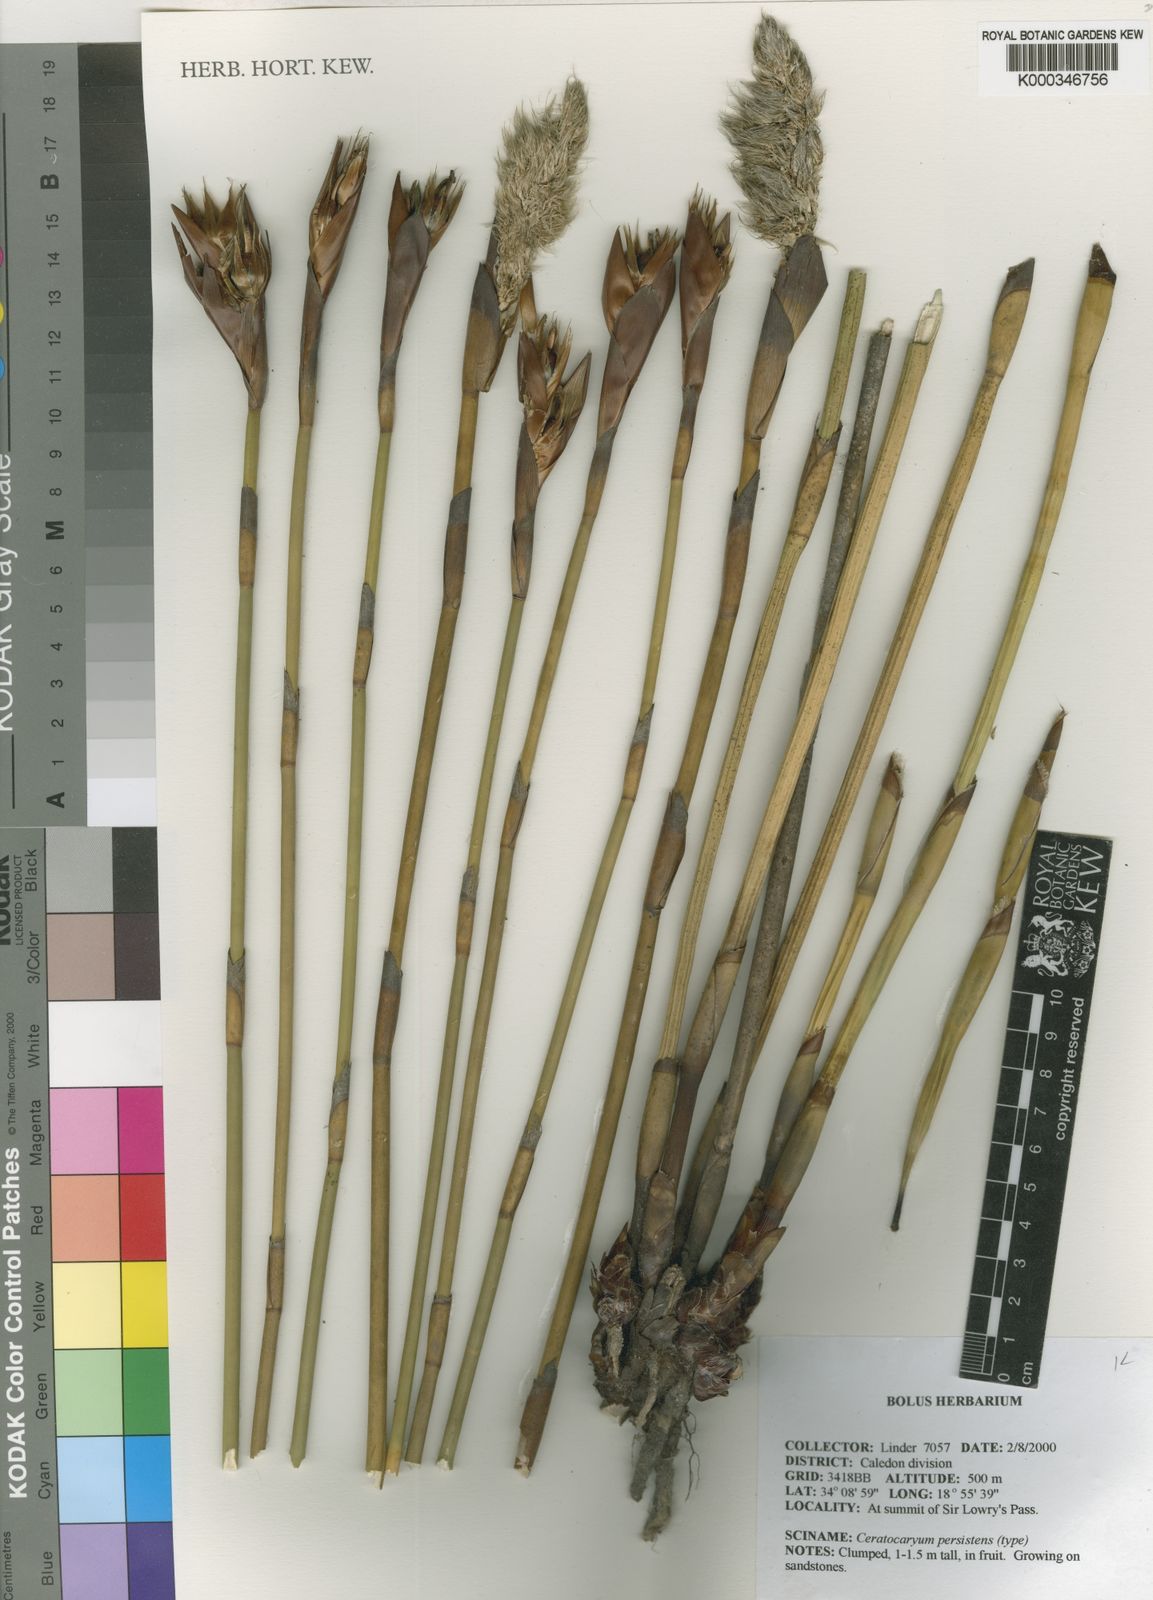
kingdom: Plantae
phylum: Tracheophyta
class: Liliopsida
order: Poales
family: Restionaceae
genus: Ceratocaryum
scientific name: Ceratocaryum persistens
